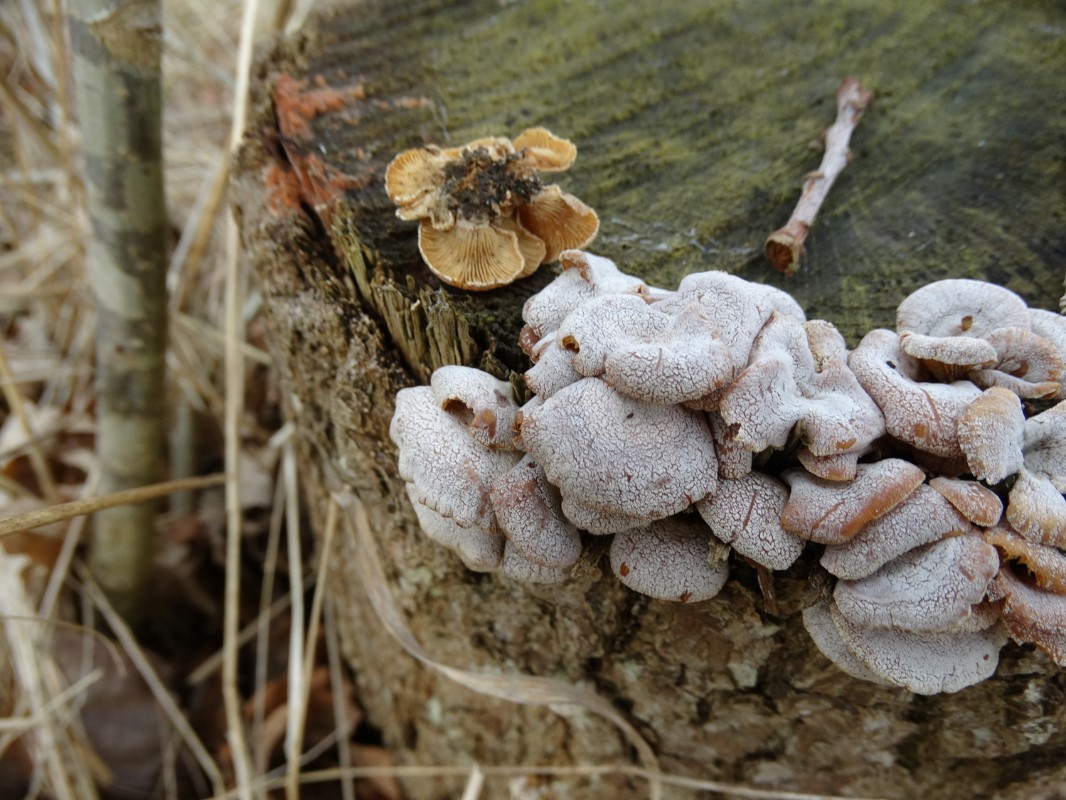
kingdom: Fungi
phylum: Basidiomycota
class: Agaricomycetes
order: Agaricales
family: Mycenaceae
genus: Panellus
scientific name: Panellus stipticus
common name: kliddet epaulethat
